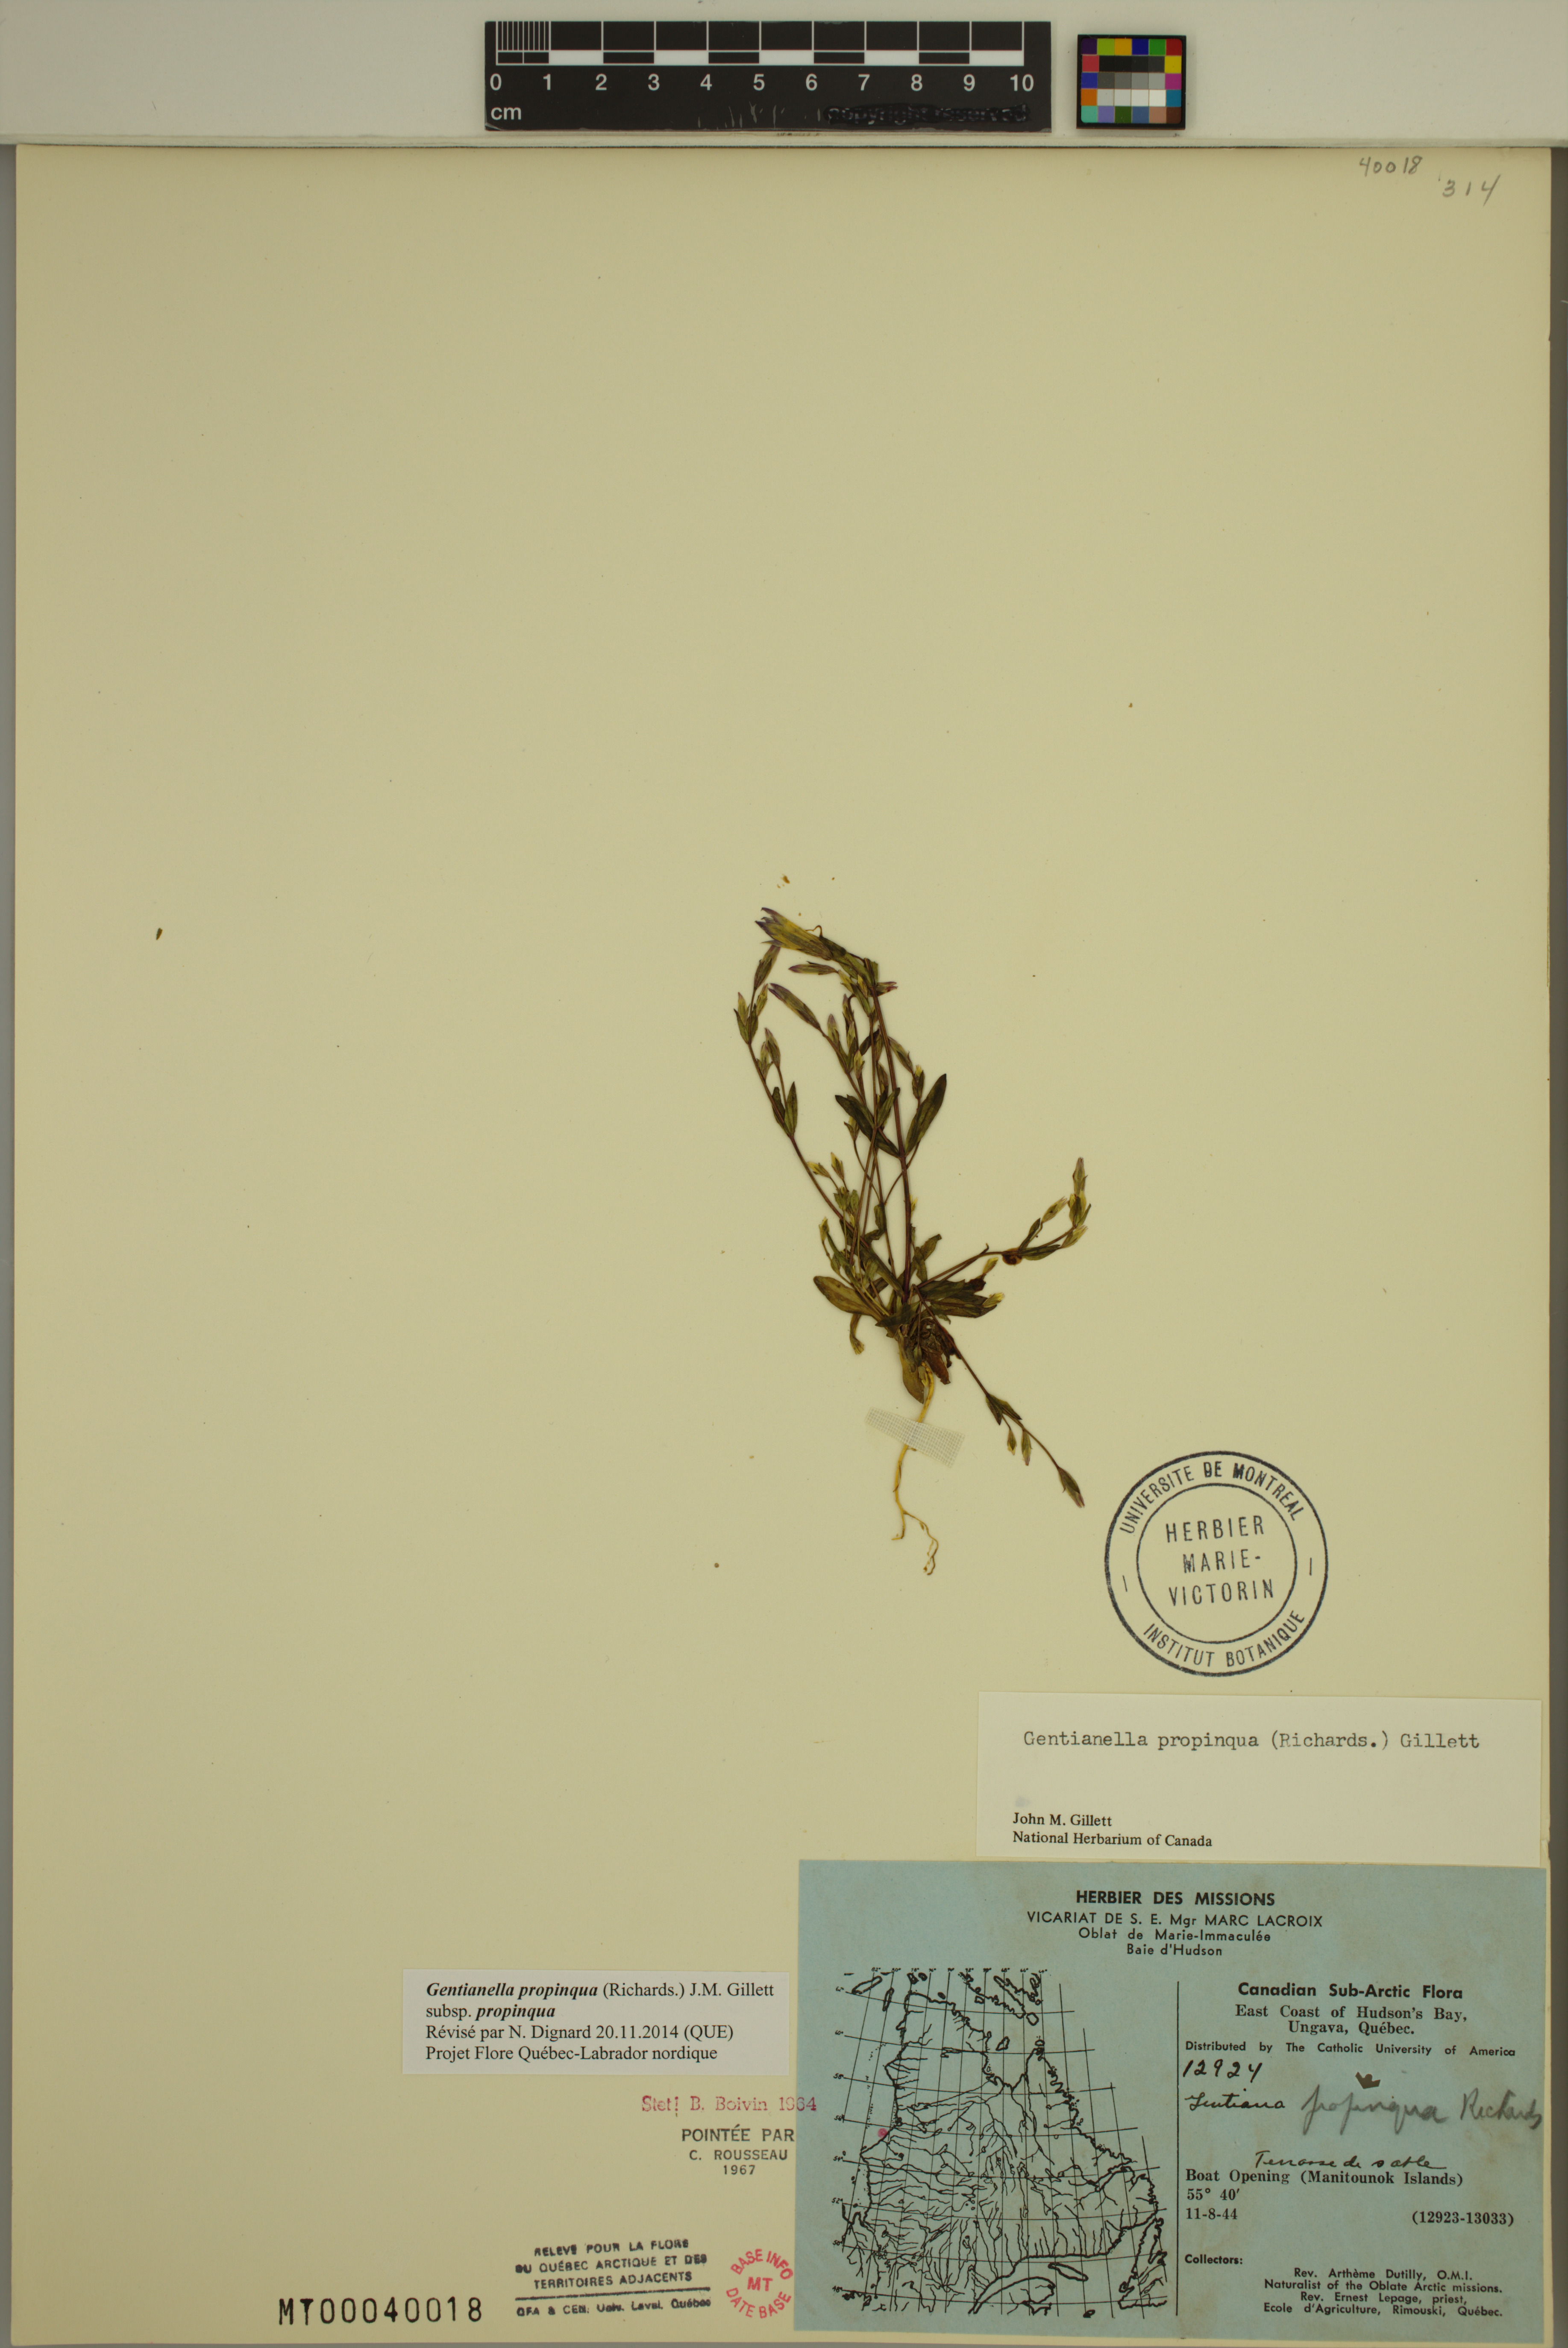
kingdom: Plantae
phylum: Tracheophyta
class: Magnoliopsida
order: Gentianales
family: Gentianaceae
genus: Gentianella
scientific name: Gentianella propinqua
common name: Four-parted dwarf-gentian
